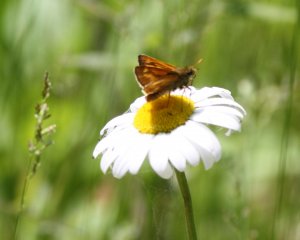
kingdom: Animalia
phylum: Arthropoda
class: Insecta
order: Lepidoptera
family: Hesperiidae
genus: Polites
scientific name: Polites
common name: Long Dash Skipper
